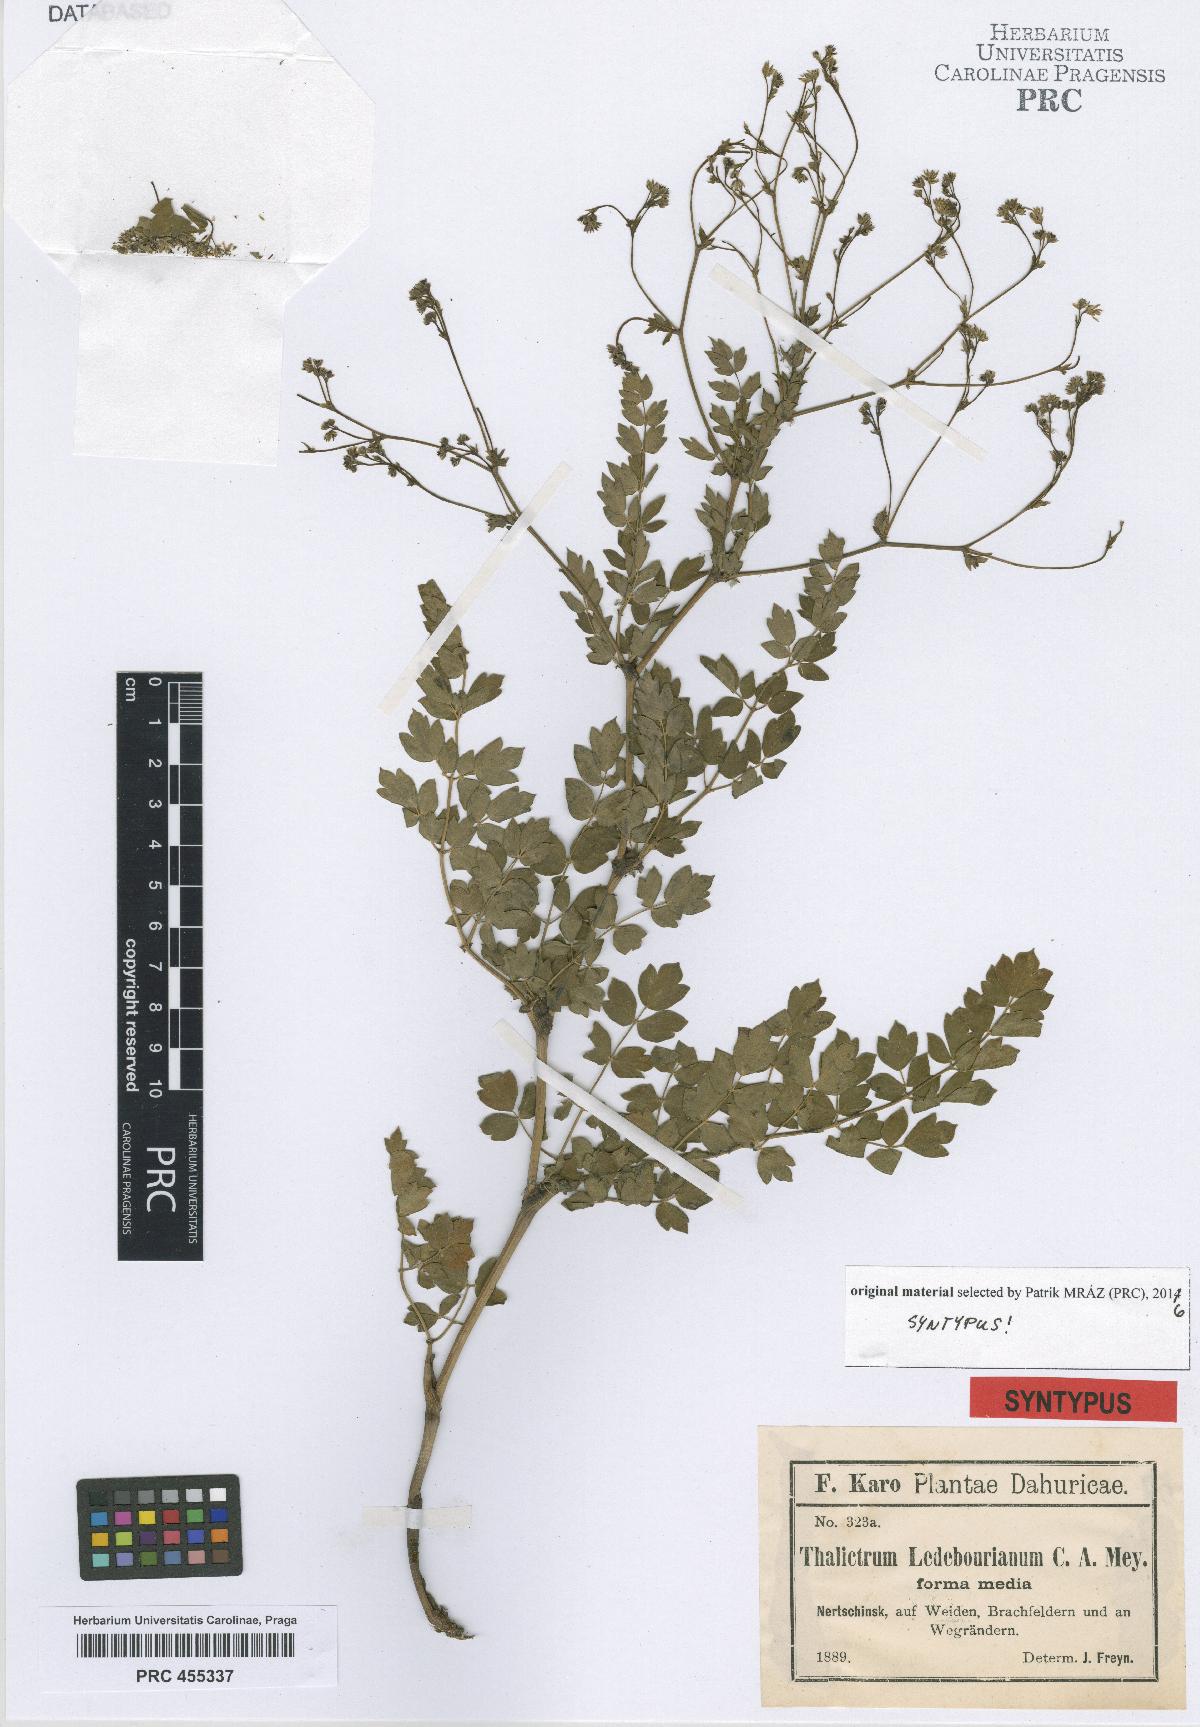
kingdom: Plantae
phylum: Tracheophyta
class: Magnoliopsida
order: Ranunculales
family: Ranunculaceae
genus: Thalictrum
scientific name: Thalictrum squarrosum
